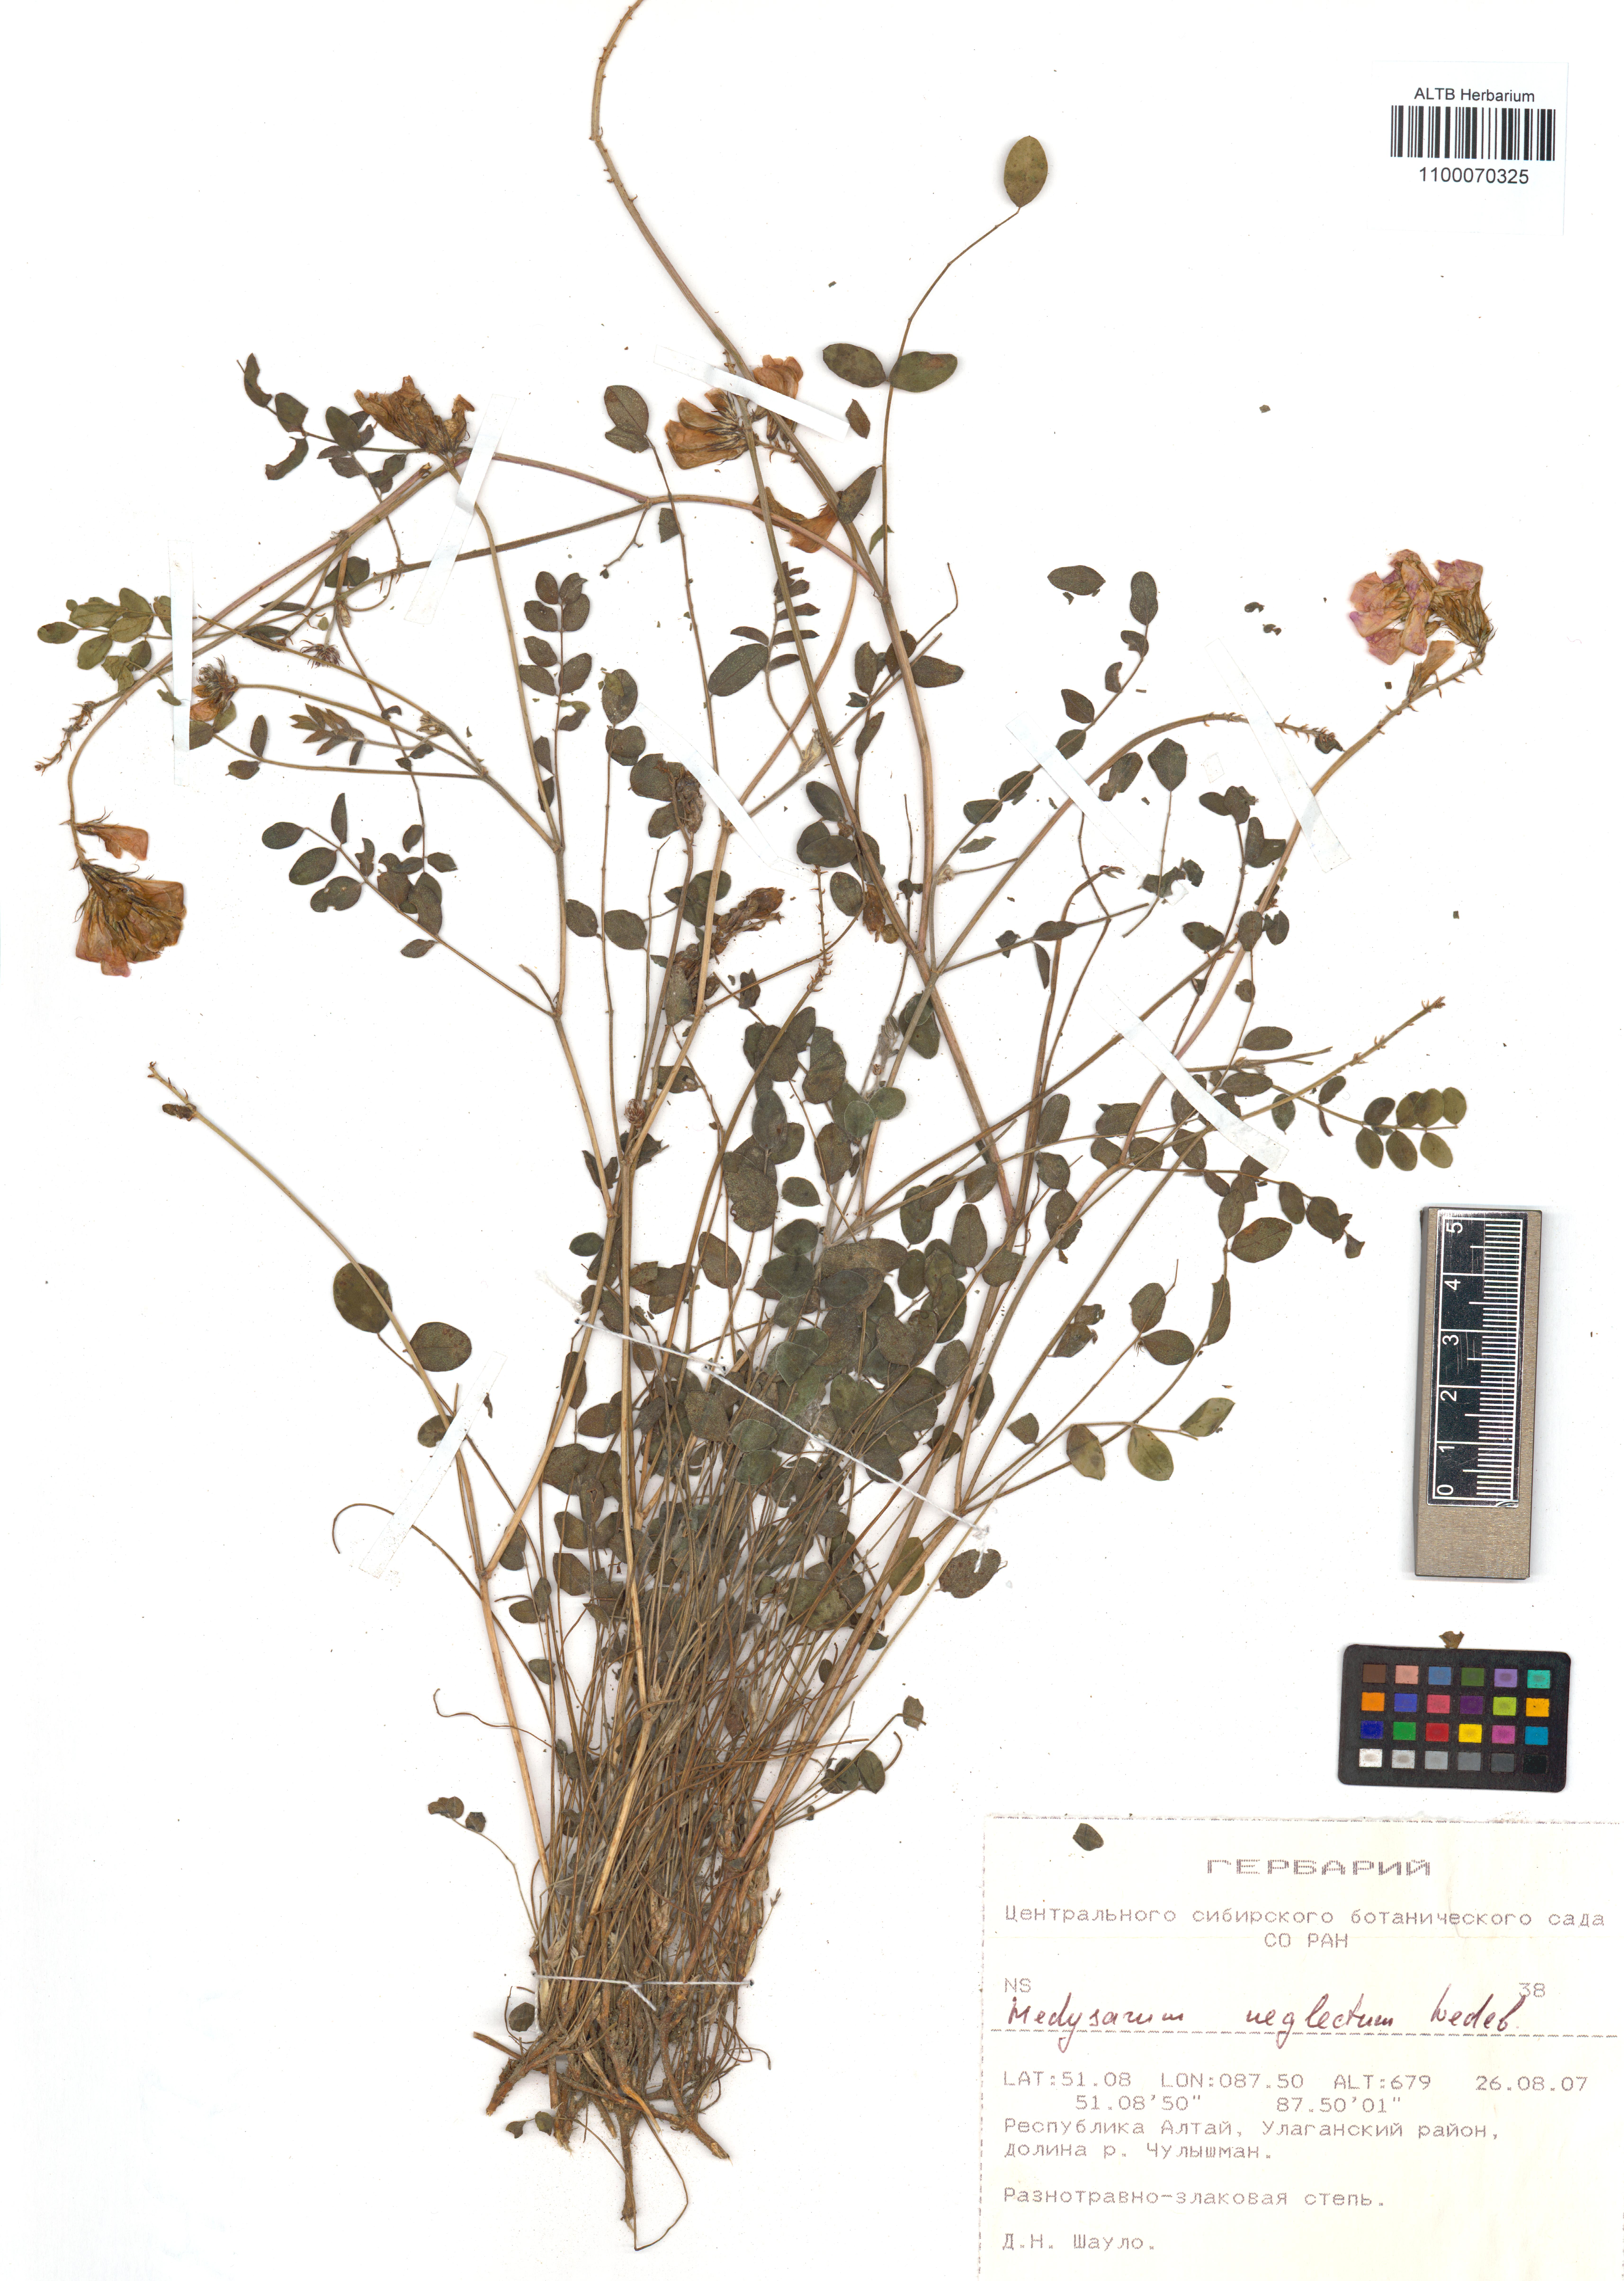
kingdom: Plantae
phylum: Tracheophyta
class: Magnoliopsida
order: Fabales
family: Fabaceae
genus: Hedysarum
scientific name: Hedysarum neglectum
